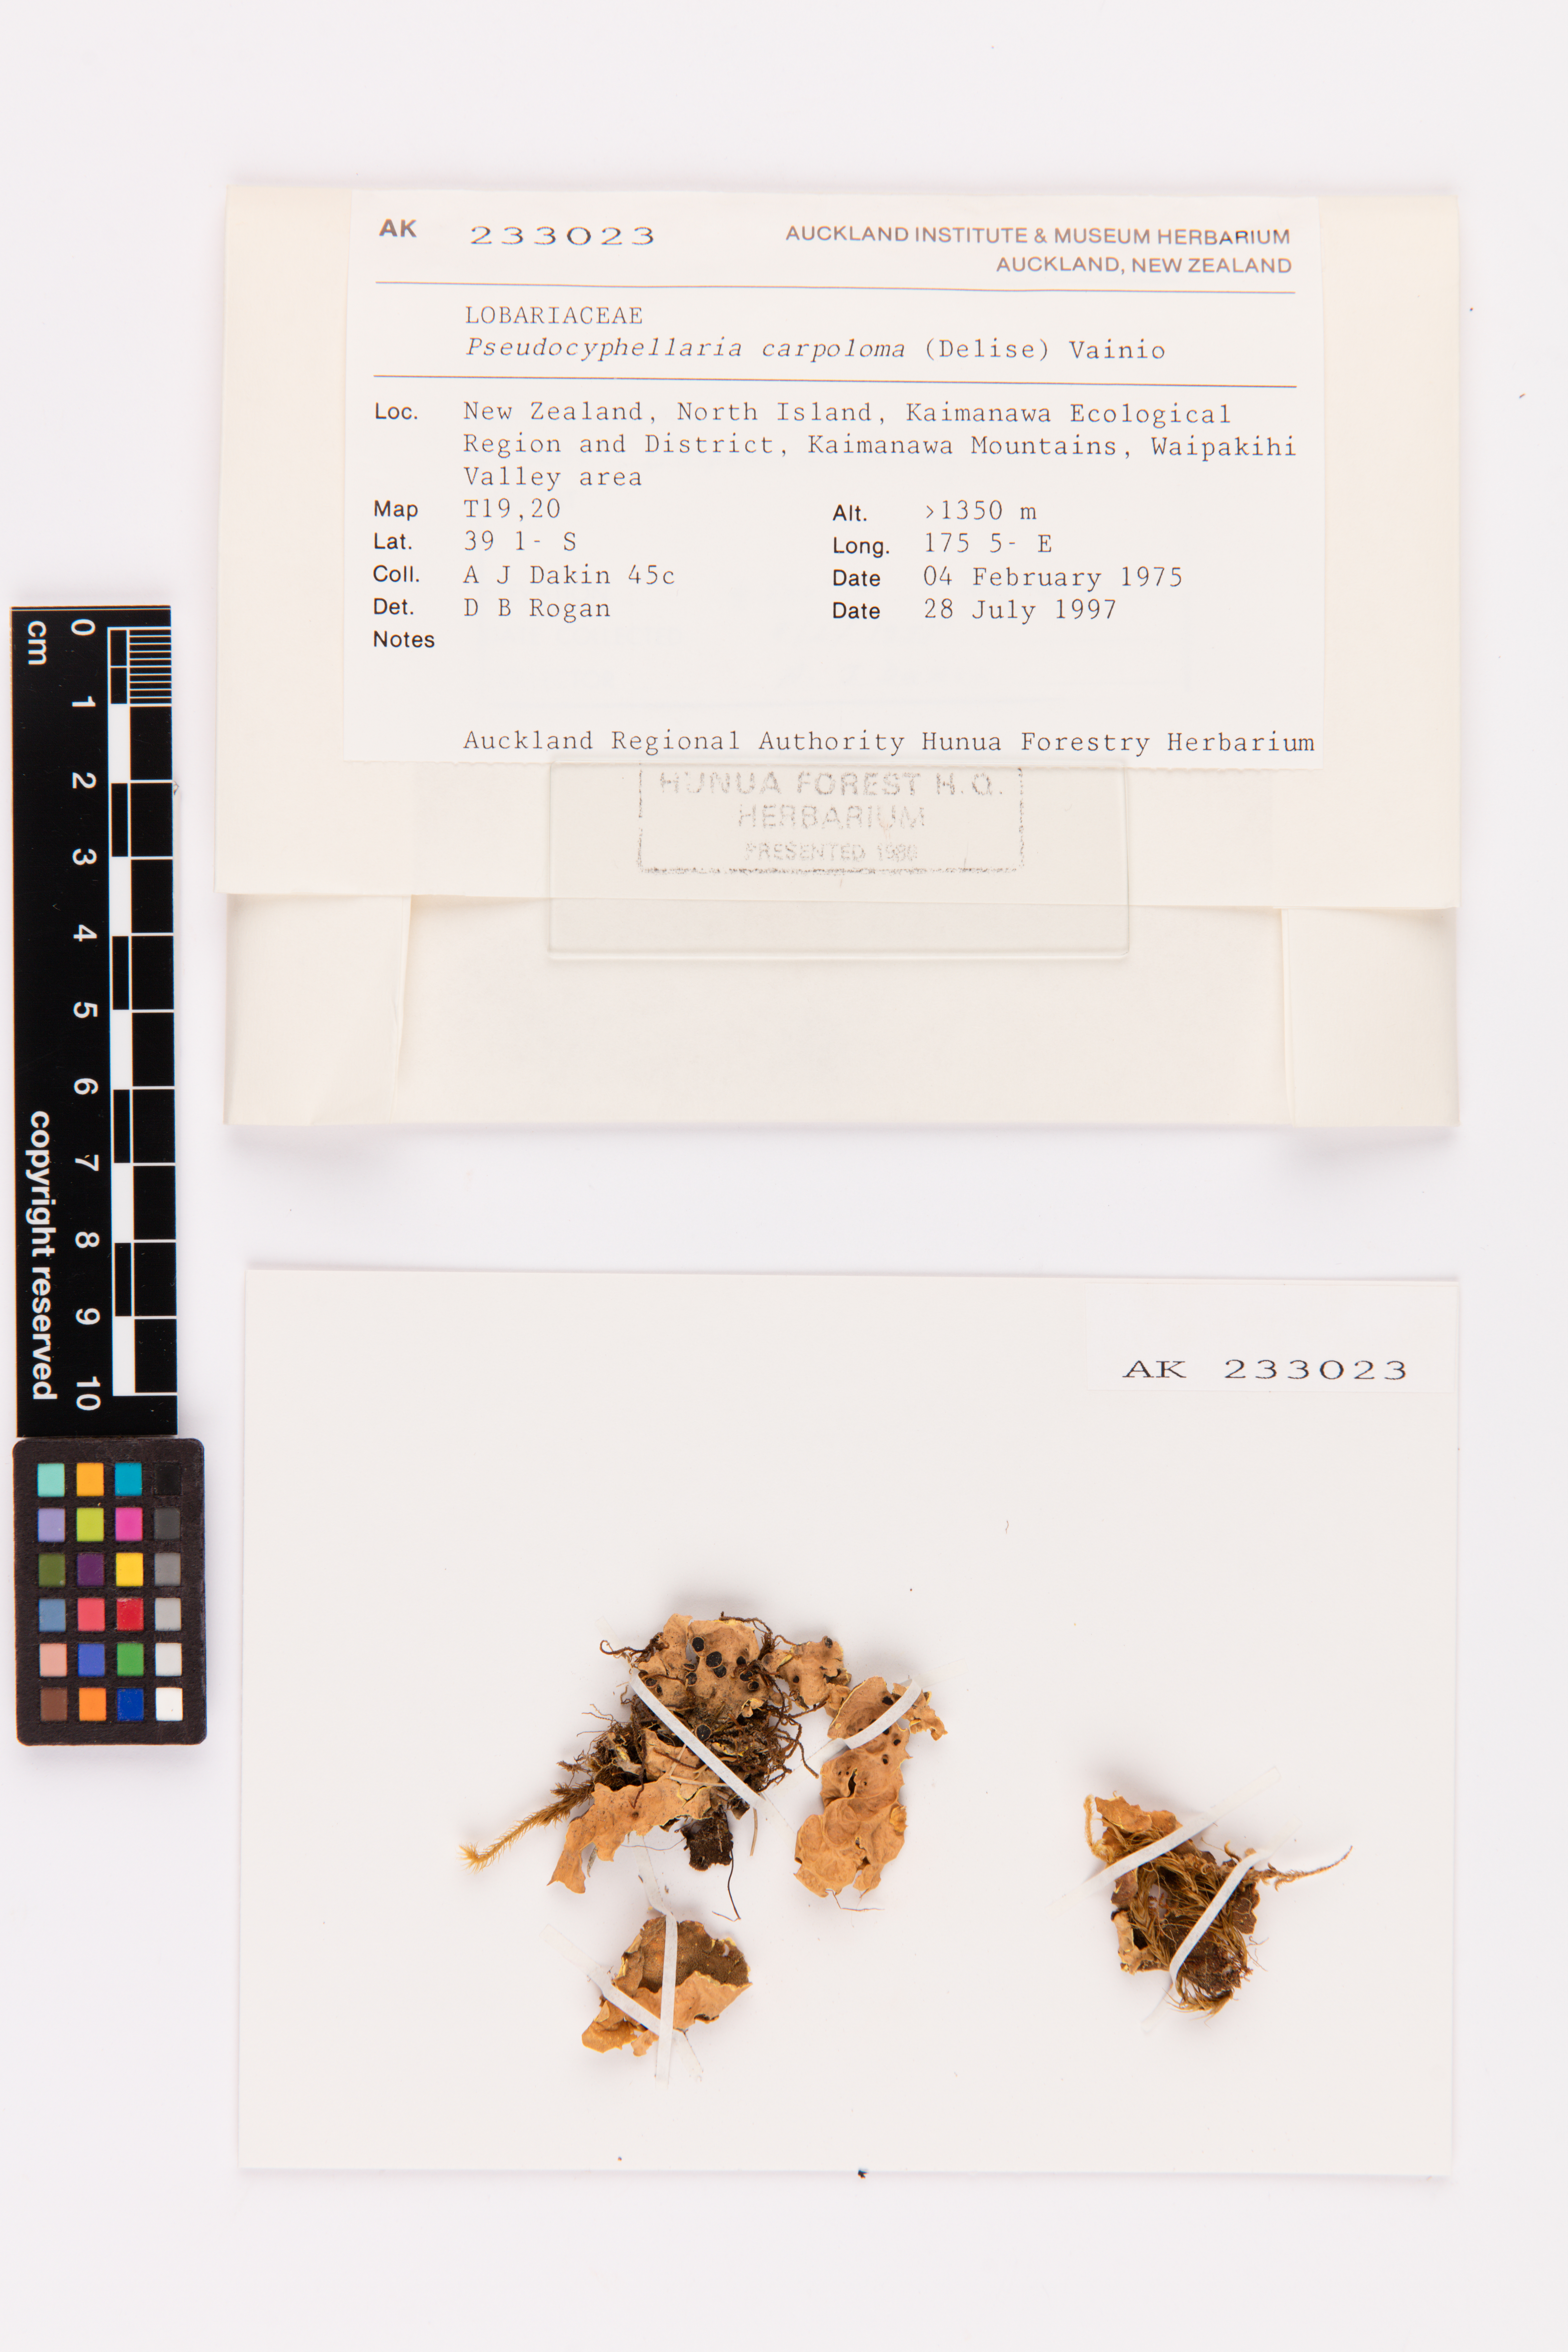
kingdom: Fungi
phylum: Ascomycota
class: Lecanoromycetes
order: Peltigerales
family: Lobariaceae
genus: Pseudocyphellaria
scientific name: Pseudocyphellaria carpoloma
